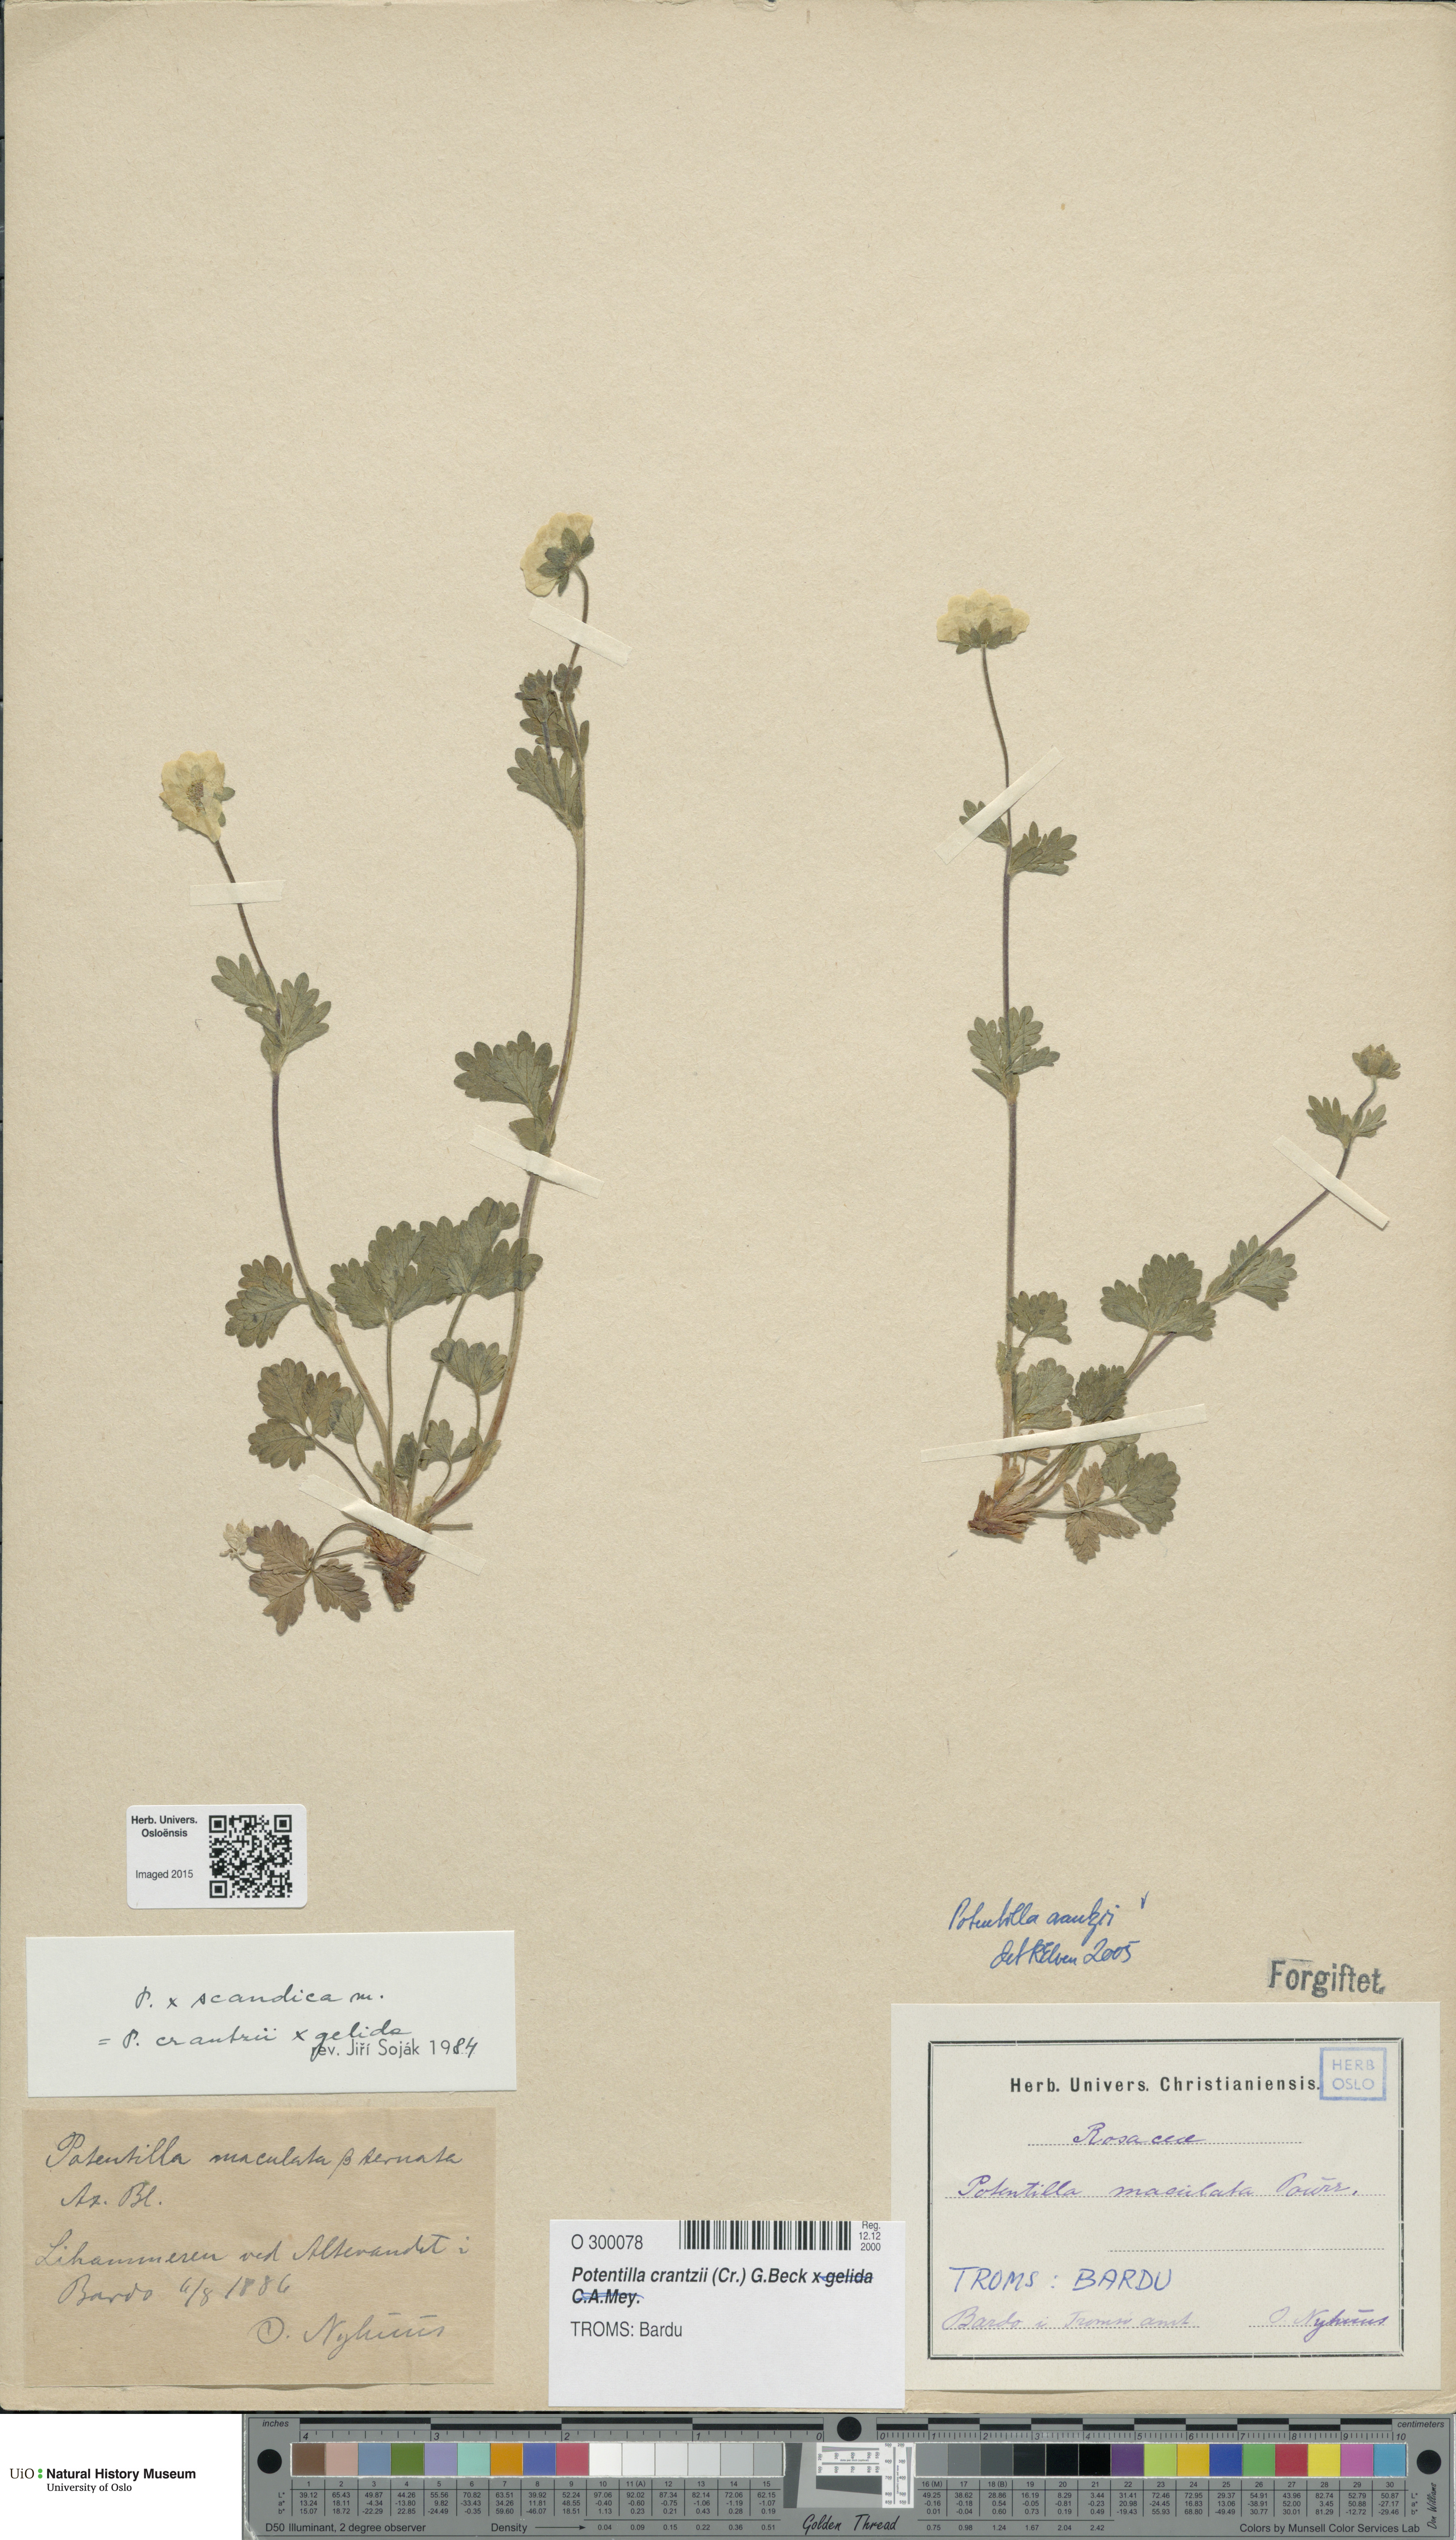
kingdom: Plantae
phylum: Tracheophyta
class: Magnoliopsida
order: Rosales
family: Rosaceae
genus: Potentilla
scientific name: Potentilla crantzii
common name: Alpine cinquefoil
